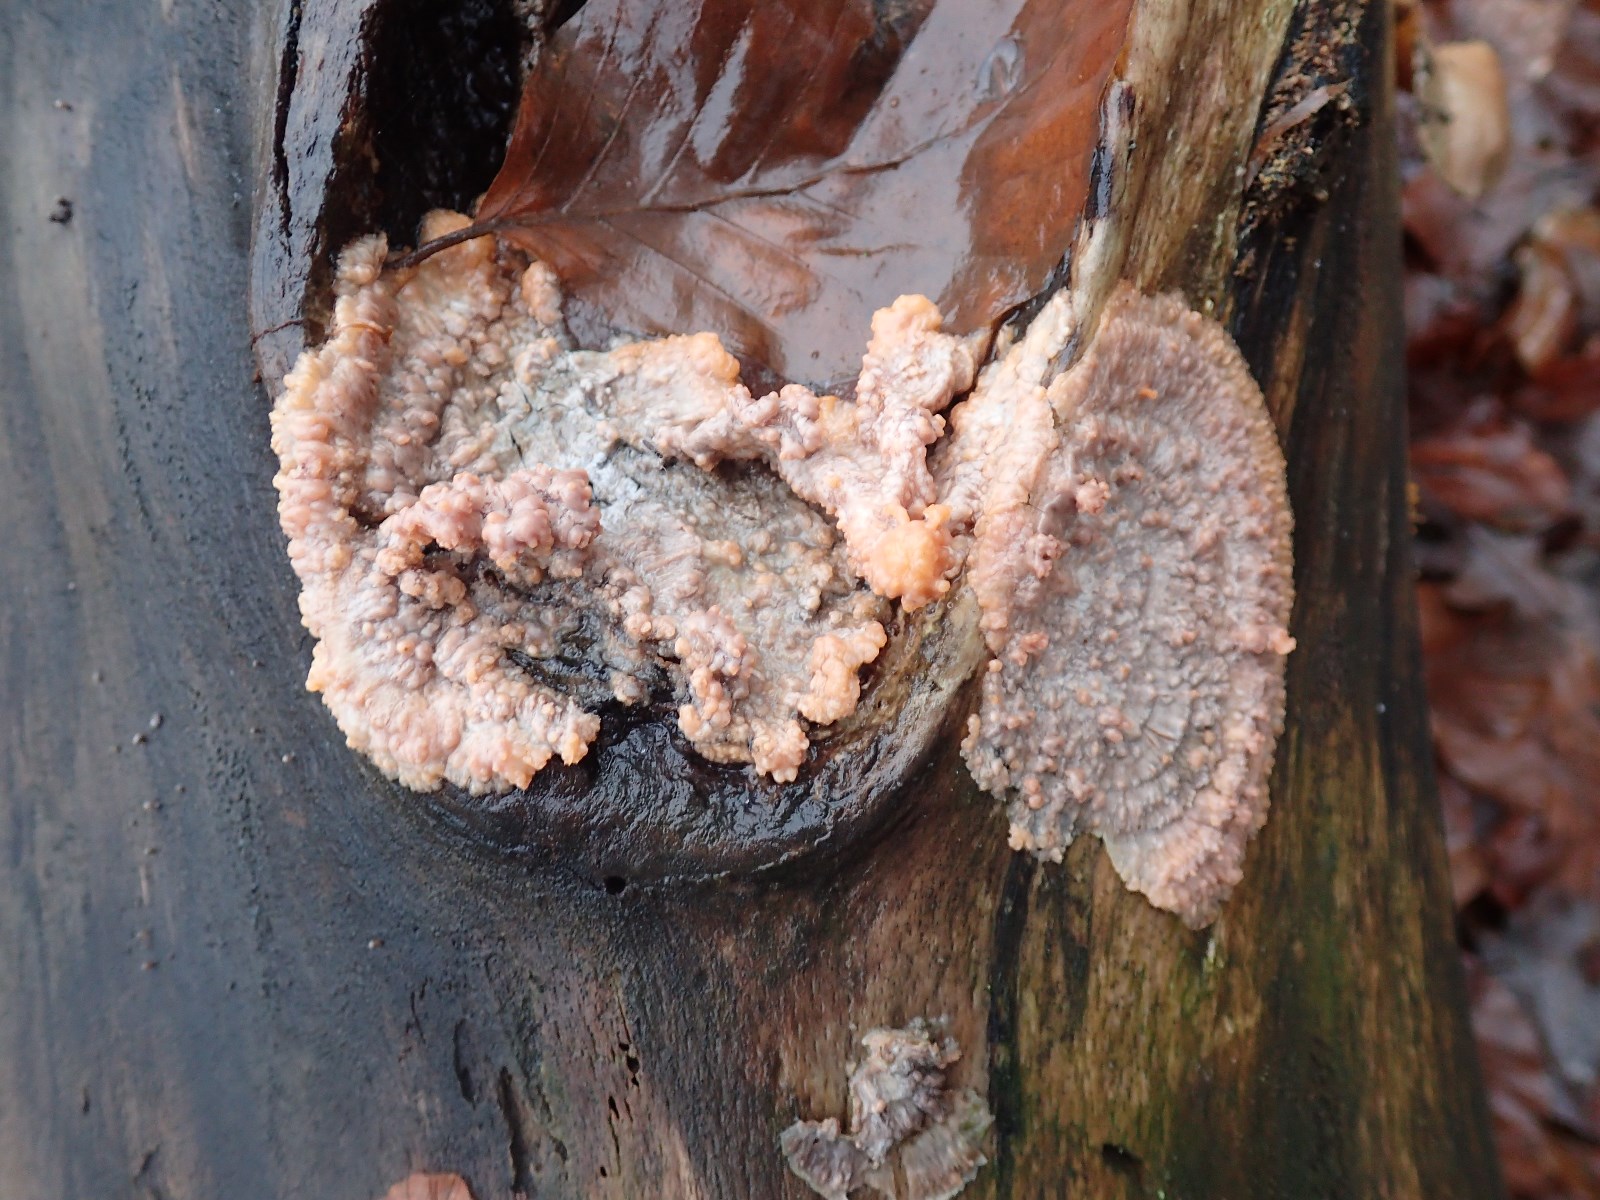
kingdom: Fungi
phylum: Basidiomycota
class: Agaricomycetes
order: Polyporales
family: Meruliaceae
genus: Phlebia
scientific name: Phlebia radiata
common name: stråle-åresvamp
